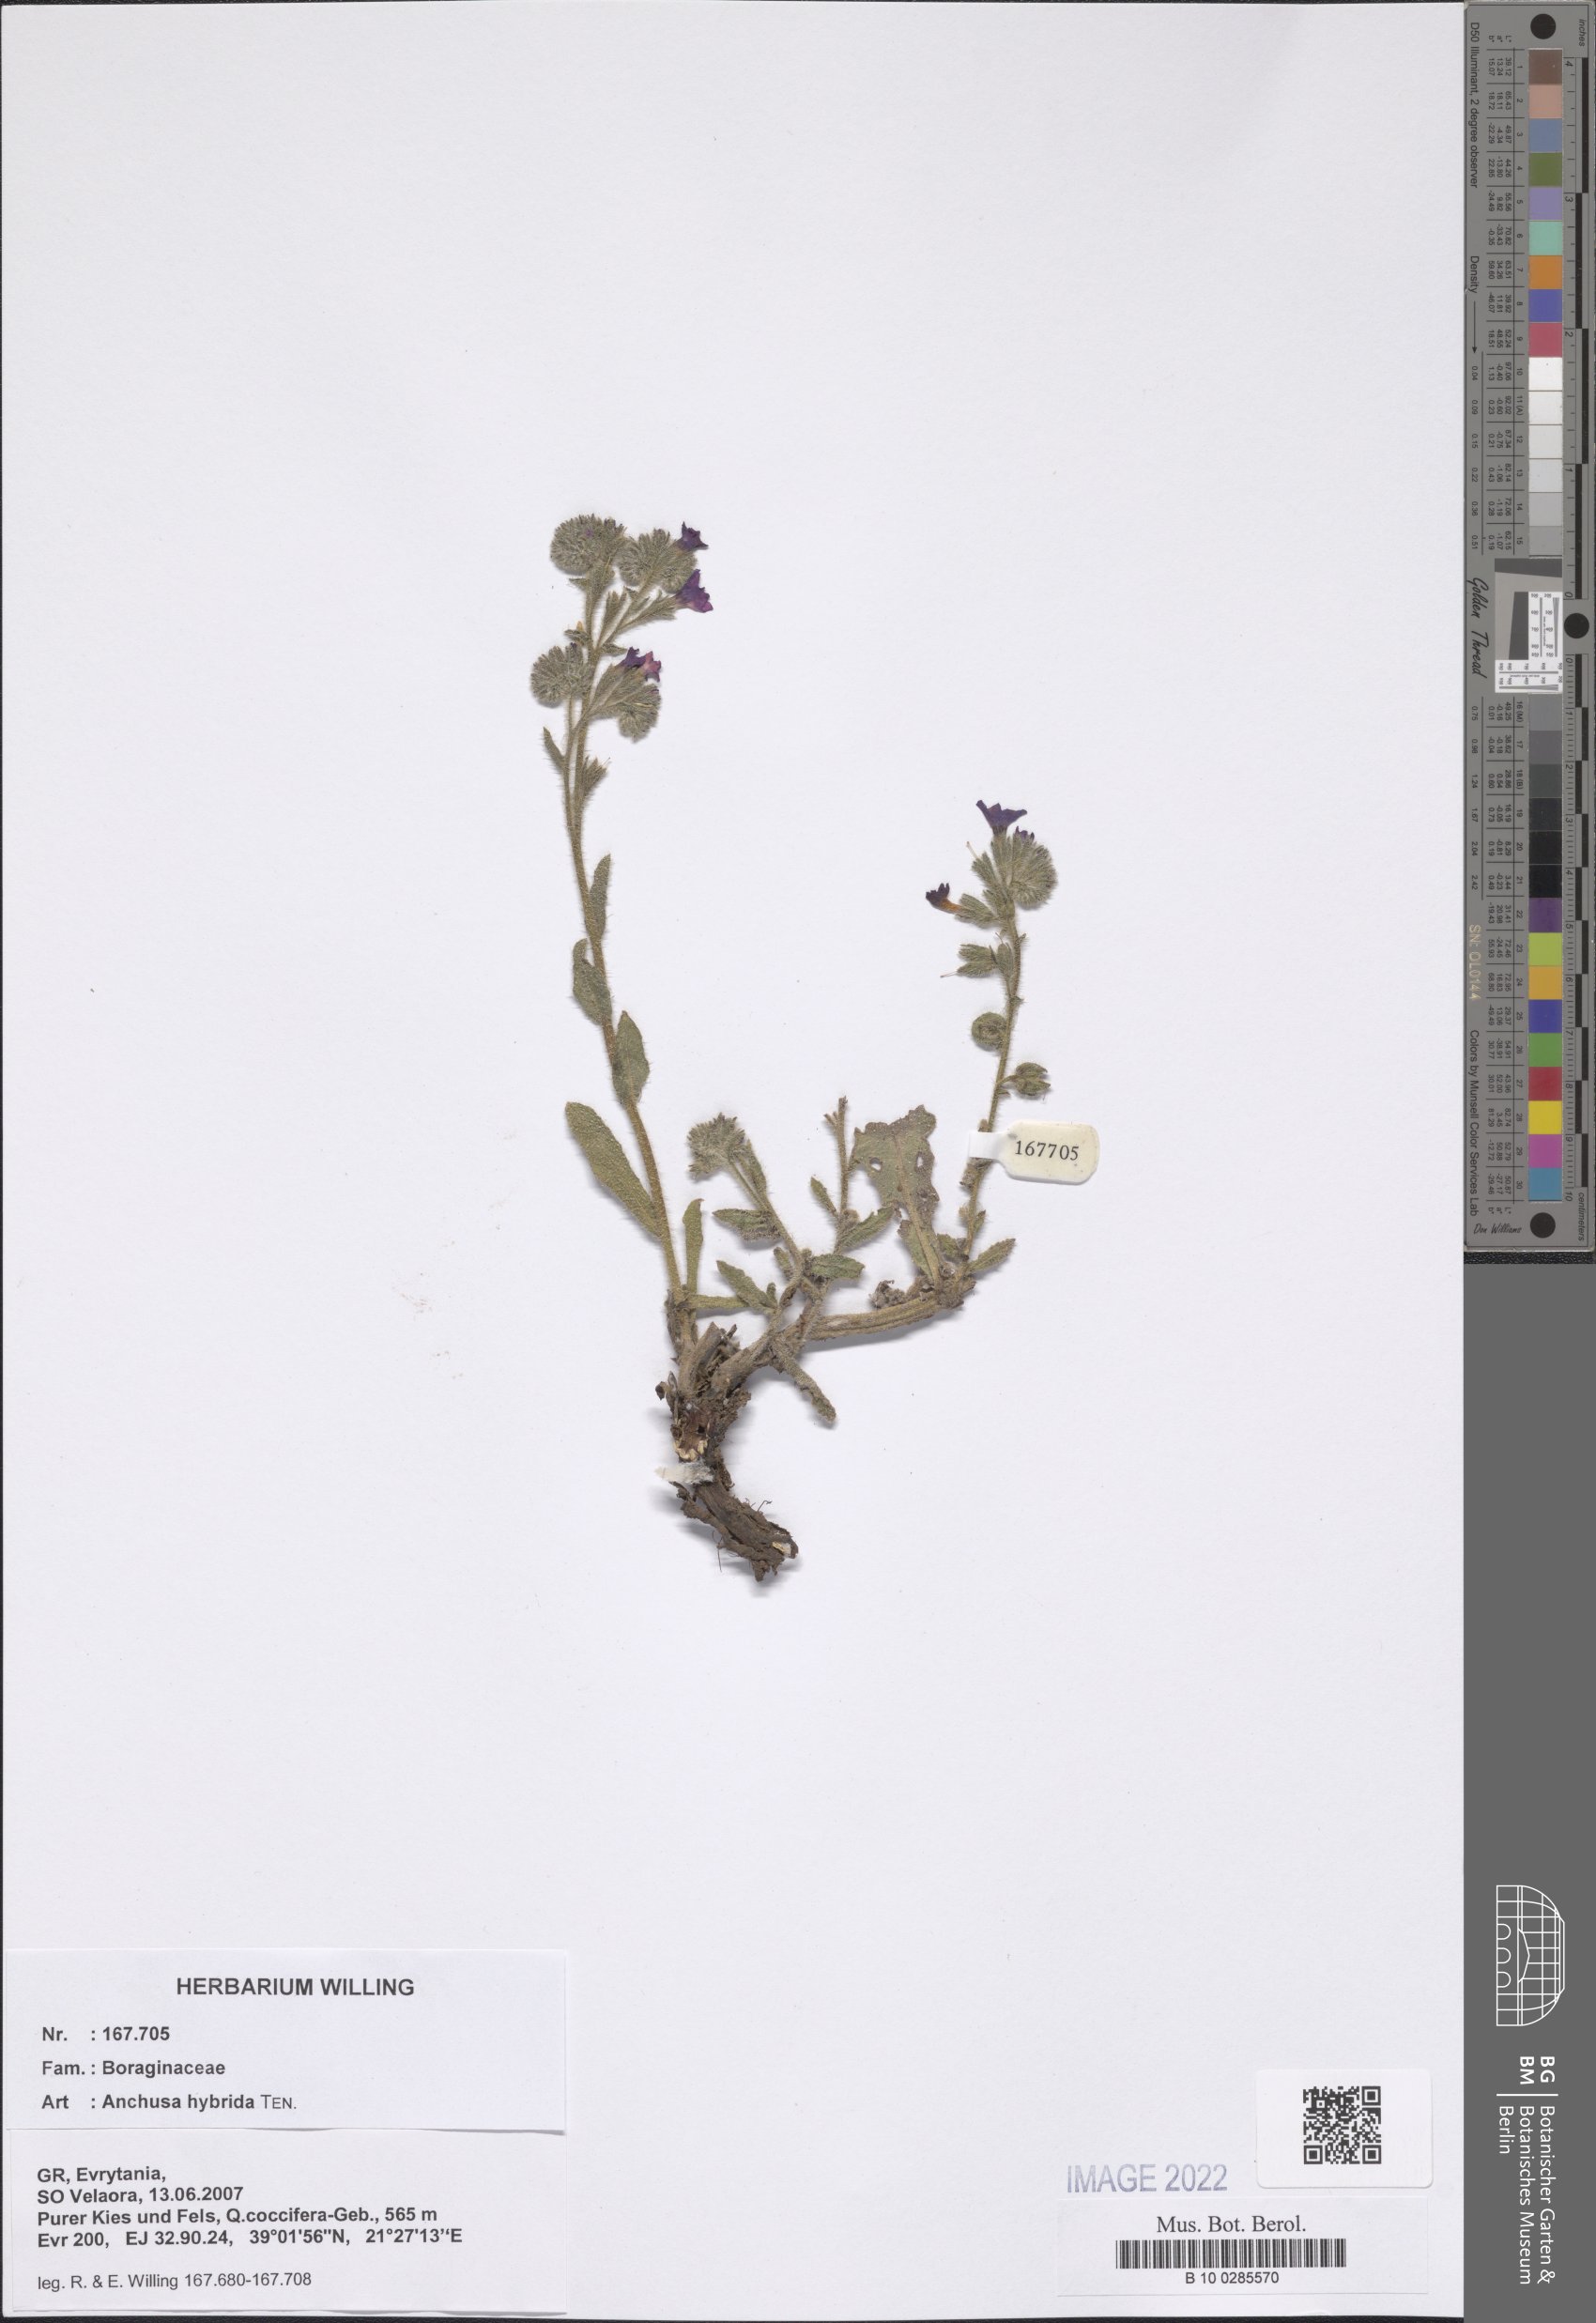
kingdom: Plantae
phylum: Tracheophyta
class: Magnoliopsida
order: Boraginales
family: Boraginaceae
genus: Anchusa
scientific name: Anchusa hybrida
